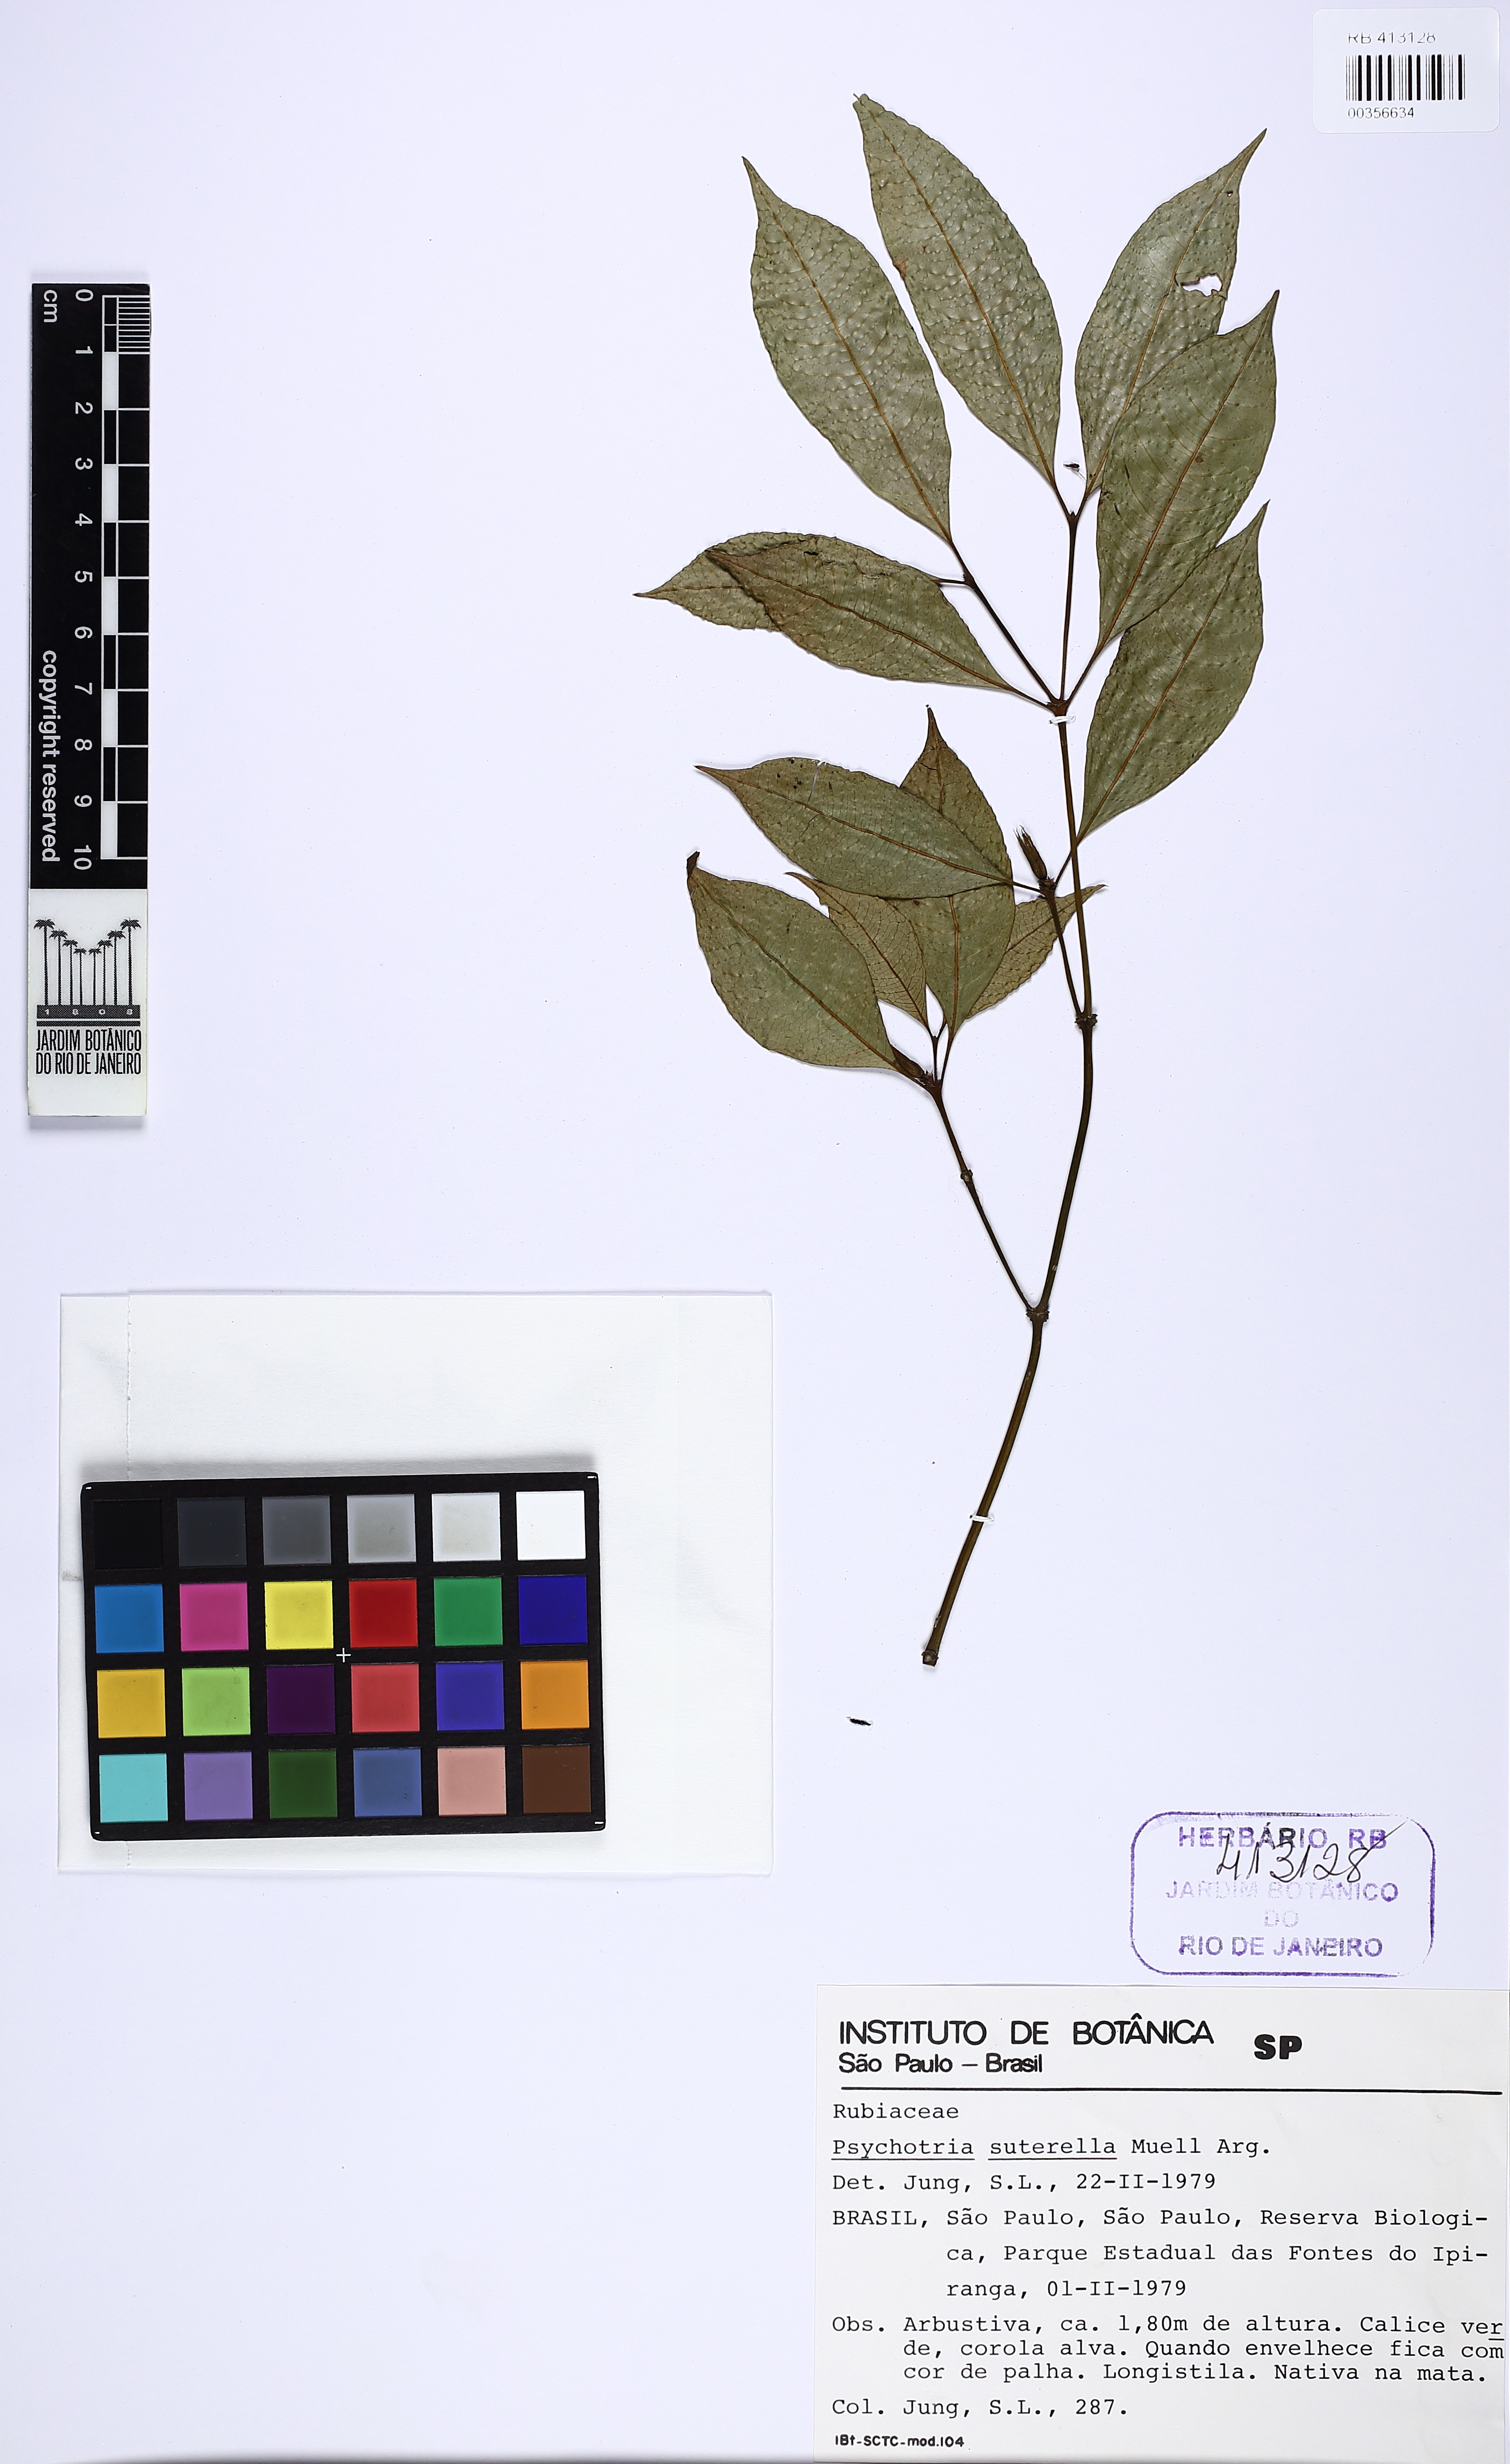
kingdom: Plantae
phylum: Tracheophyta
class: Magnoliopsida
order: Gentianales
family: Rubiaceae
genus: Psychotria
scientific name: Psychotria suterella
